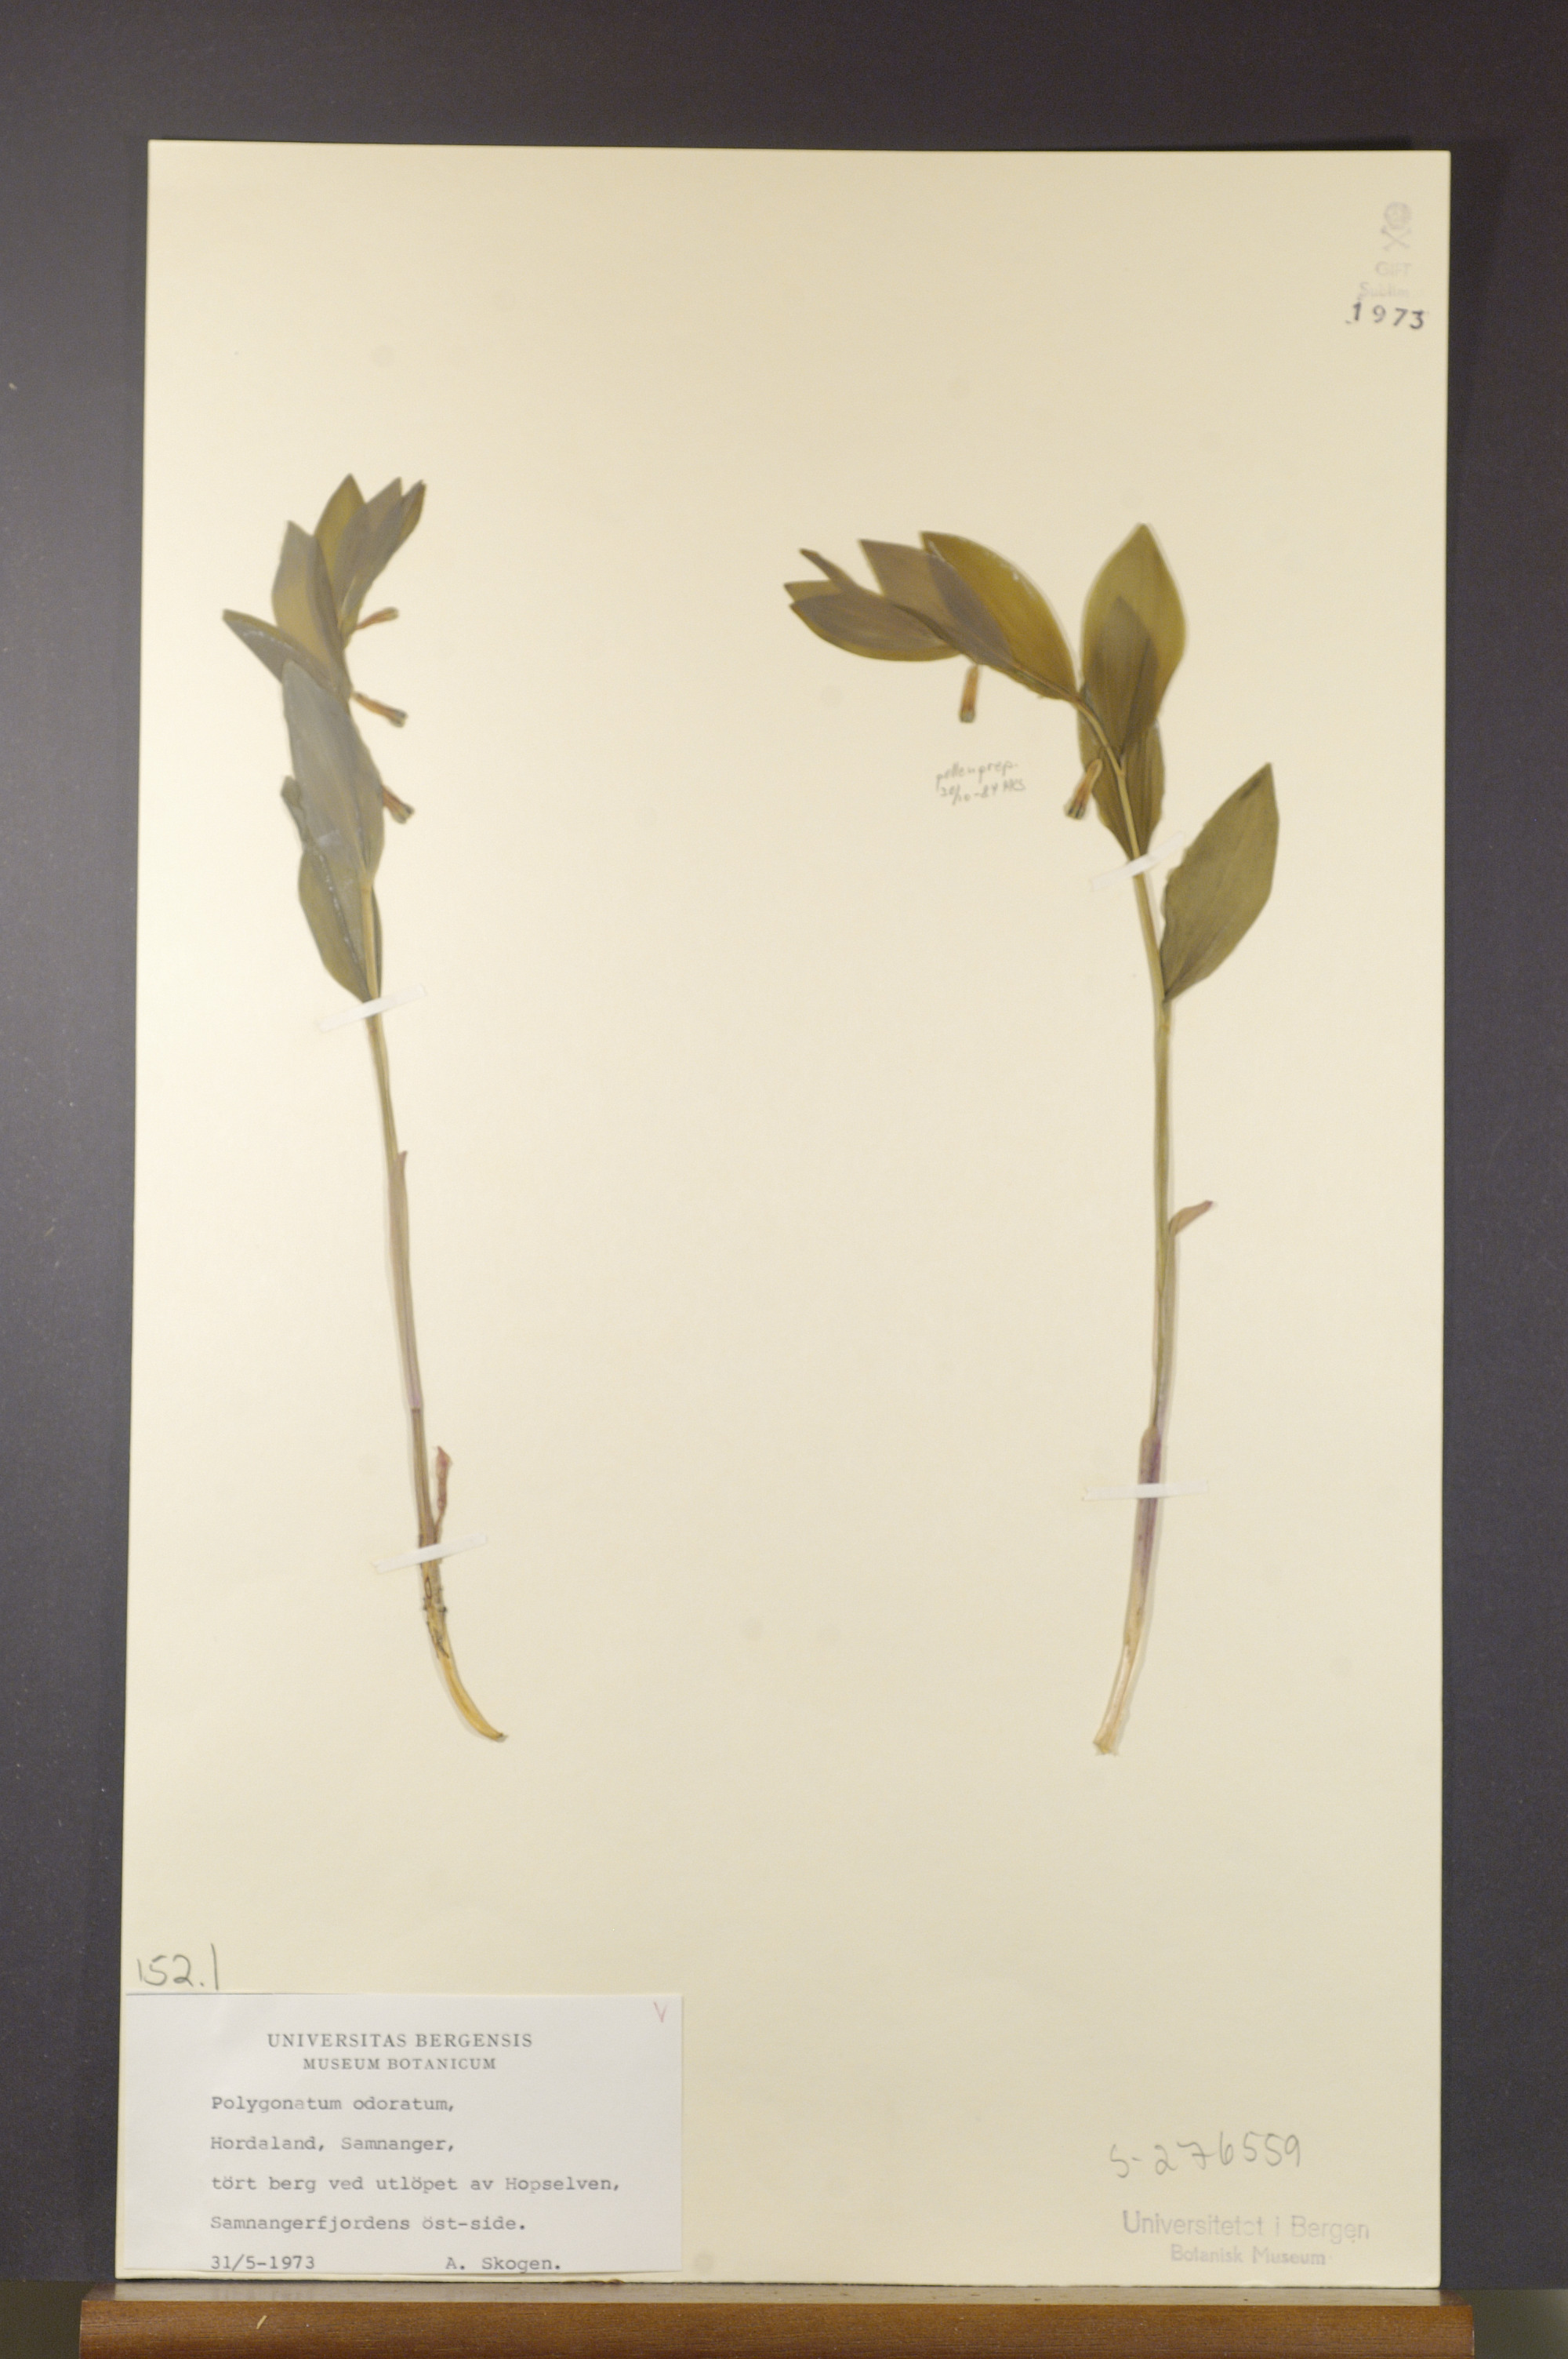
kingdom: Plantae
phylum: Tracheophyta
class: Liliopsida
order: Asparagales
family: Asparagaceae
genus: Polygonatum
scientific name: Polygonatum odoratum
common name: Angular solomon's-seal
